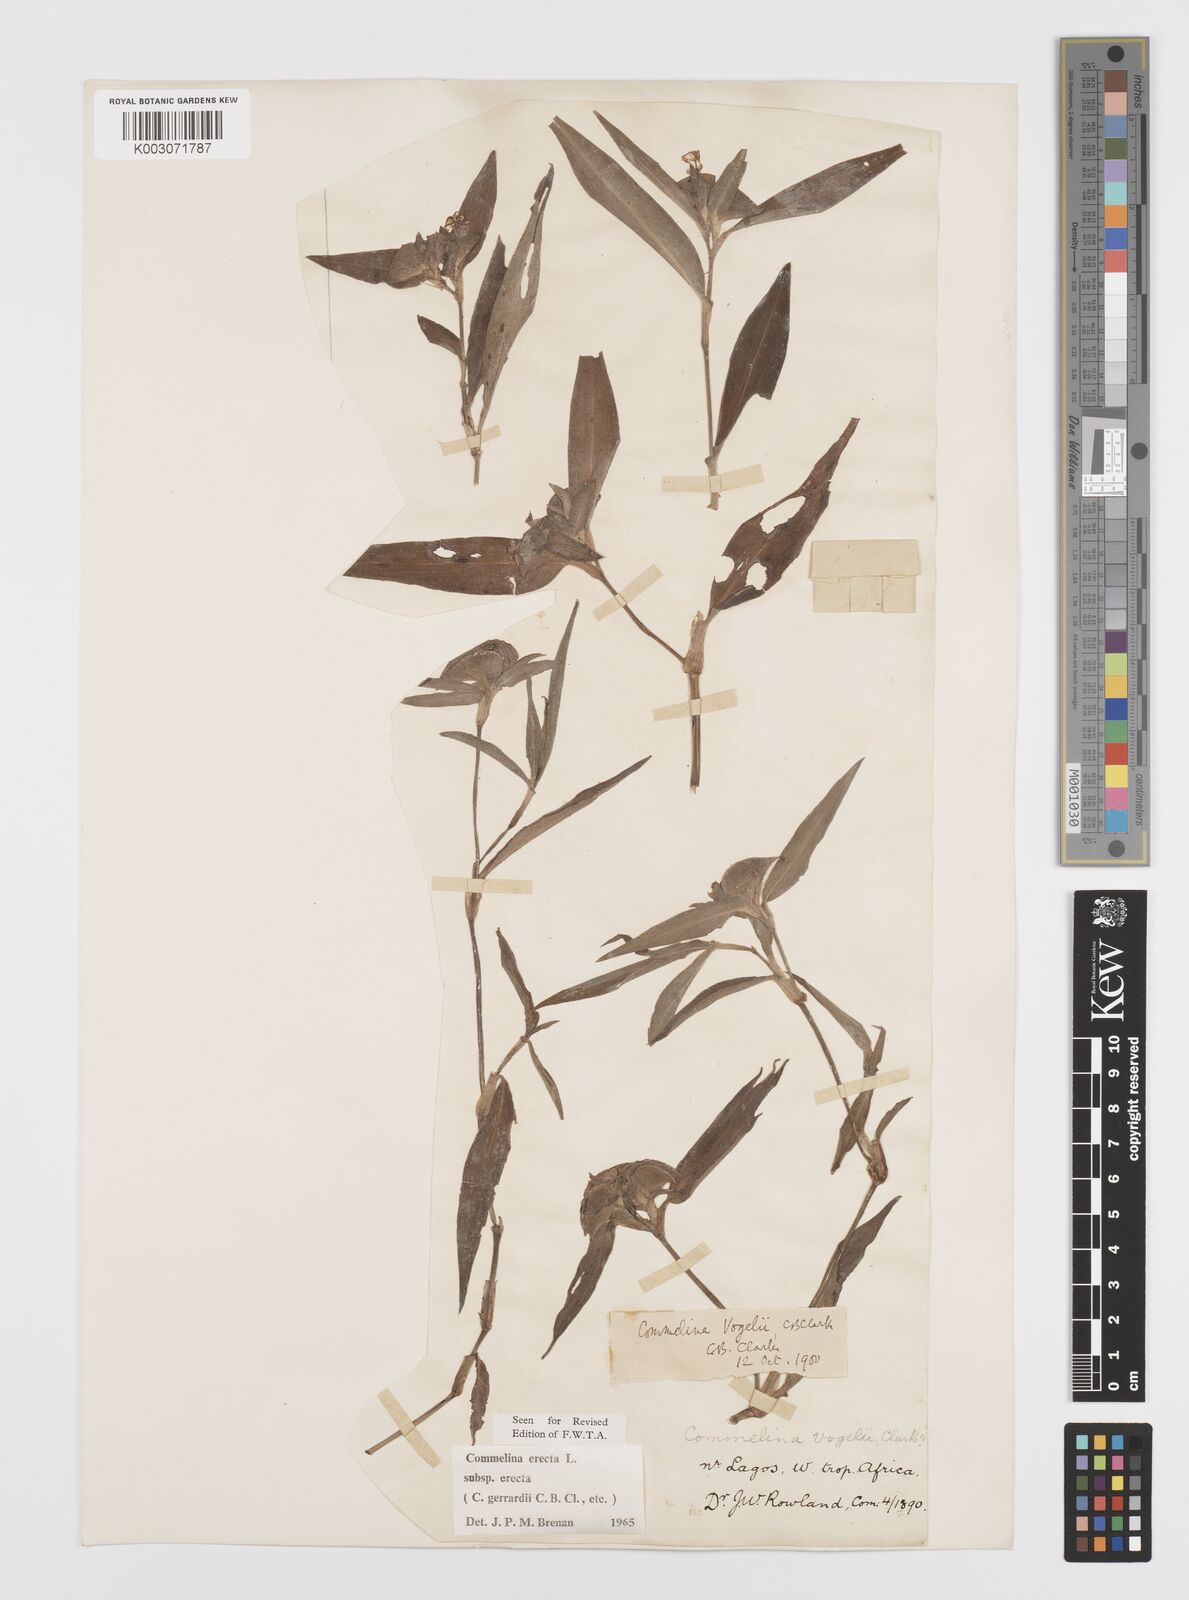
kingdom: Plantae
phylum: Tracheophyta
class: Liliopsida
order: Commelinales
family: Commelinaceae
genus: Commelina
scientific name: Commelina erecta
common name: Blousel blommetjie
